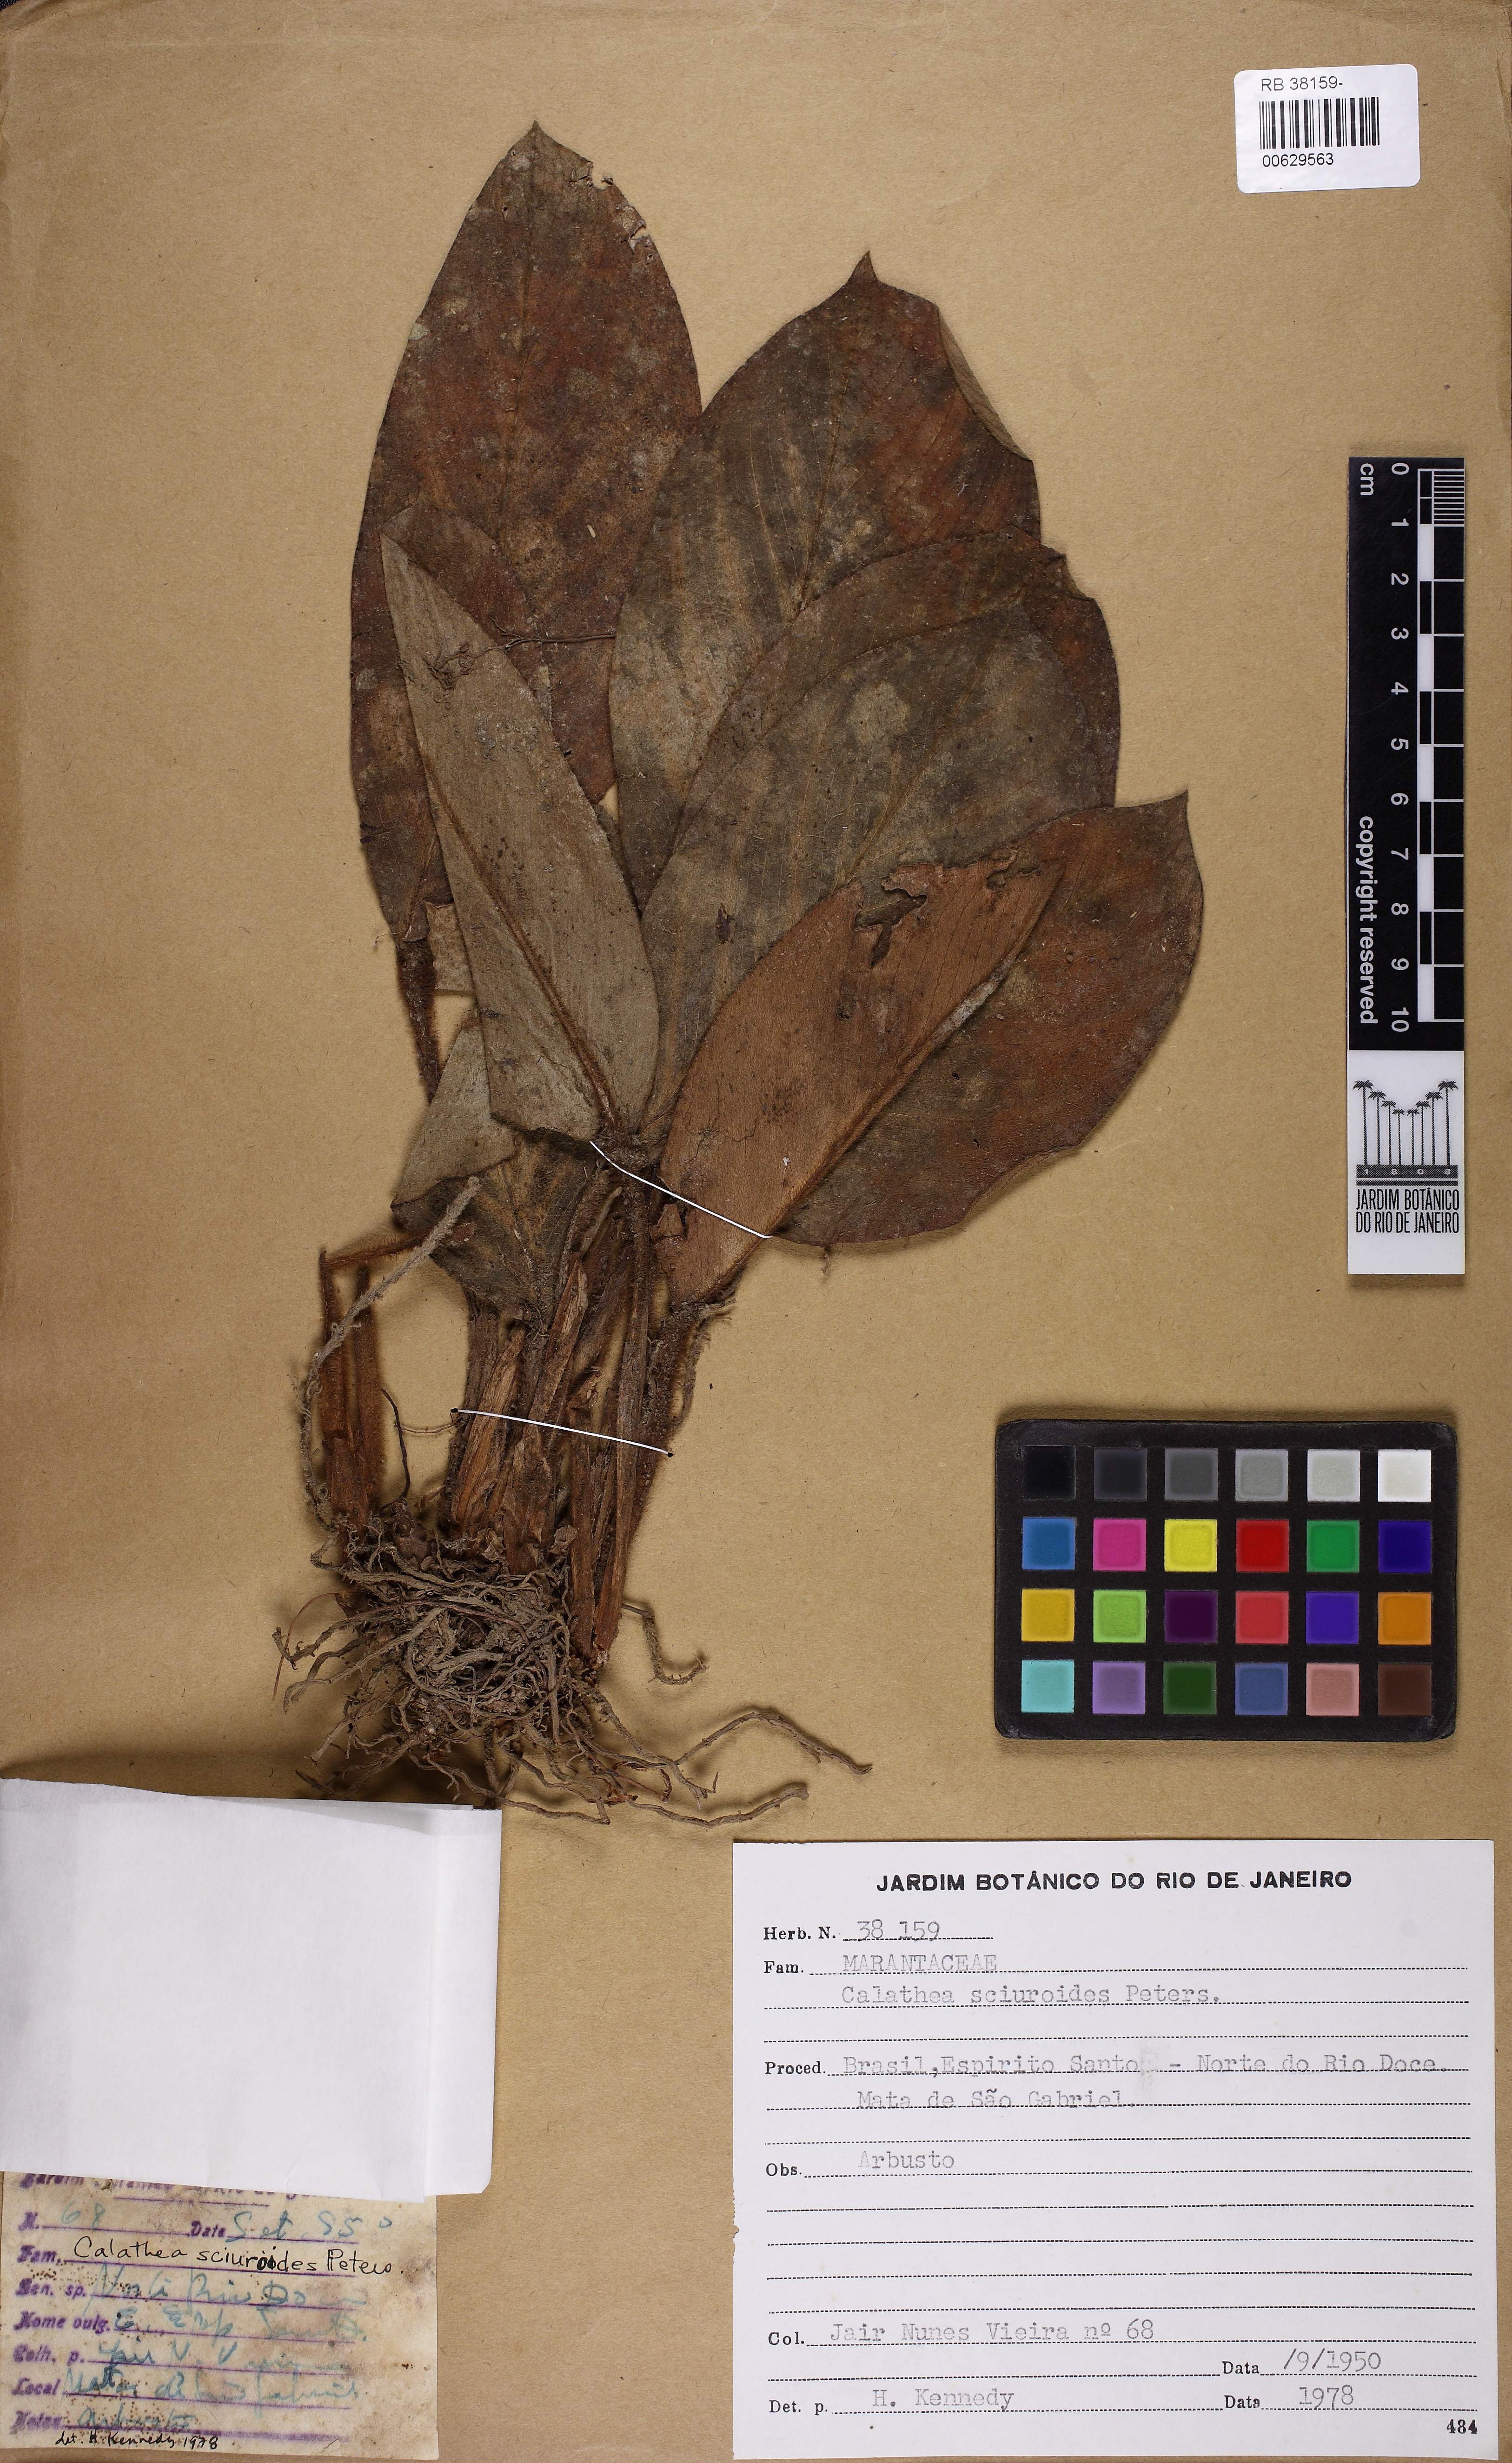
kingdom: Plantae
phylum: Tracheophyta
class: Liliopsida
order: Zingiberales
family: Marantaceae
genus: Goeppertia
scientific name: Goeppertia sciuroides
